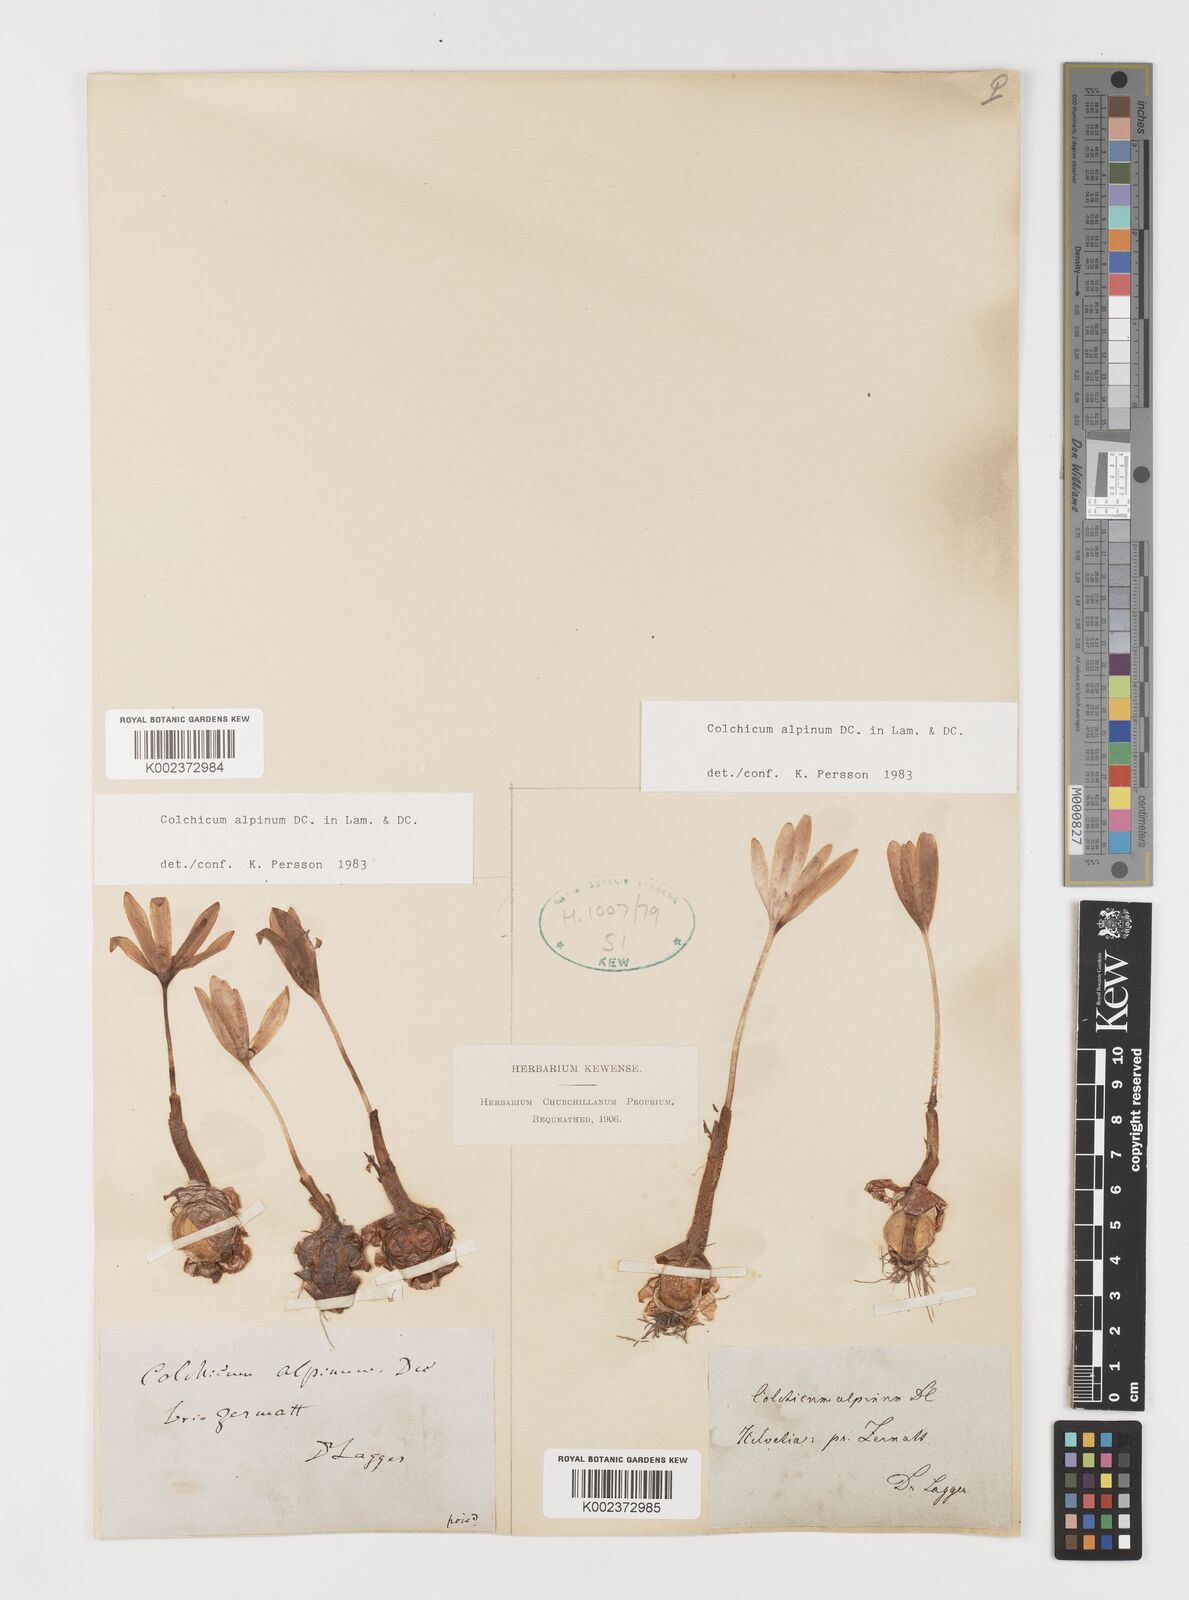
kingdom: Plantae
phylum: Tracheophyta
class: Liliopsida
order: Liliales
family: Colchicaceae
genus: Colchicum
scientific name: Colchicum alpinum
